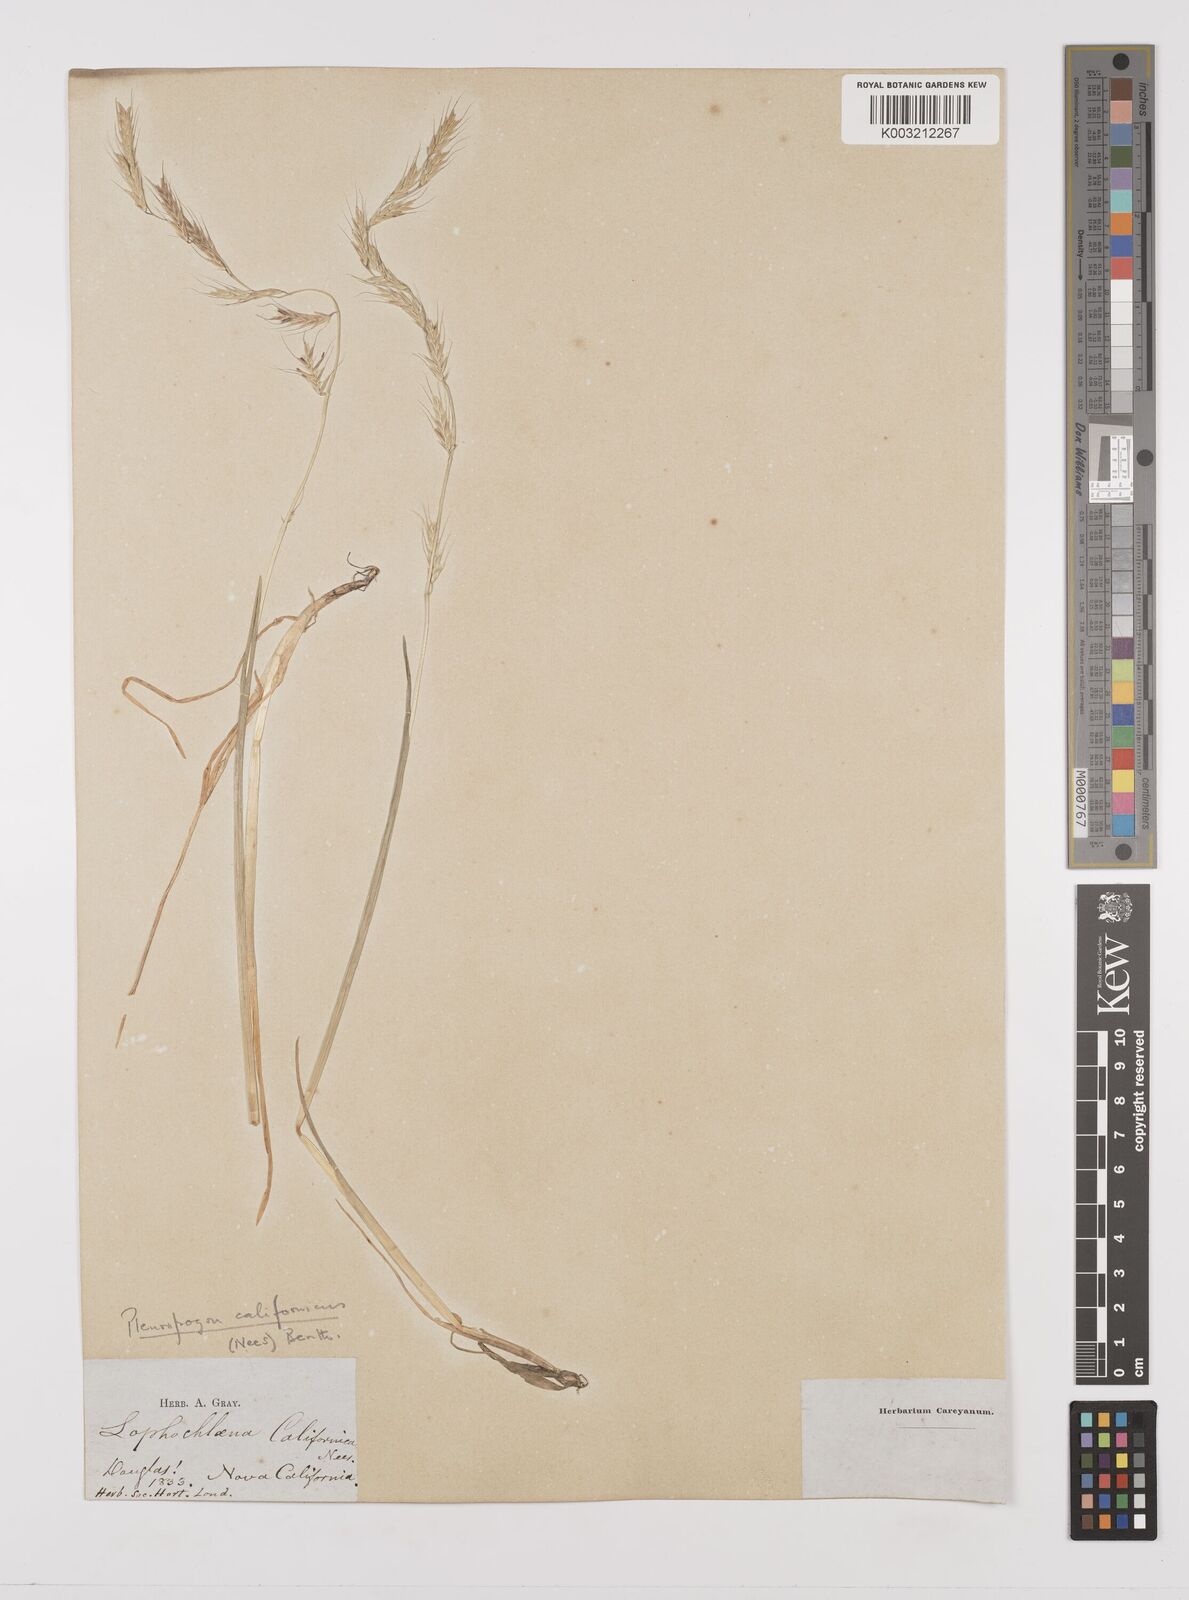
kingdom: Plantae
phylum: Tracheophyta
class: Liliopsida
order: Poales
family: Poaceae
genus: Pleuropogon
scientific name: Pleuropogon californicus
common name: California semaphore grass
